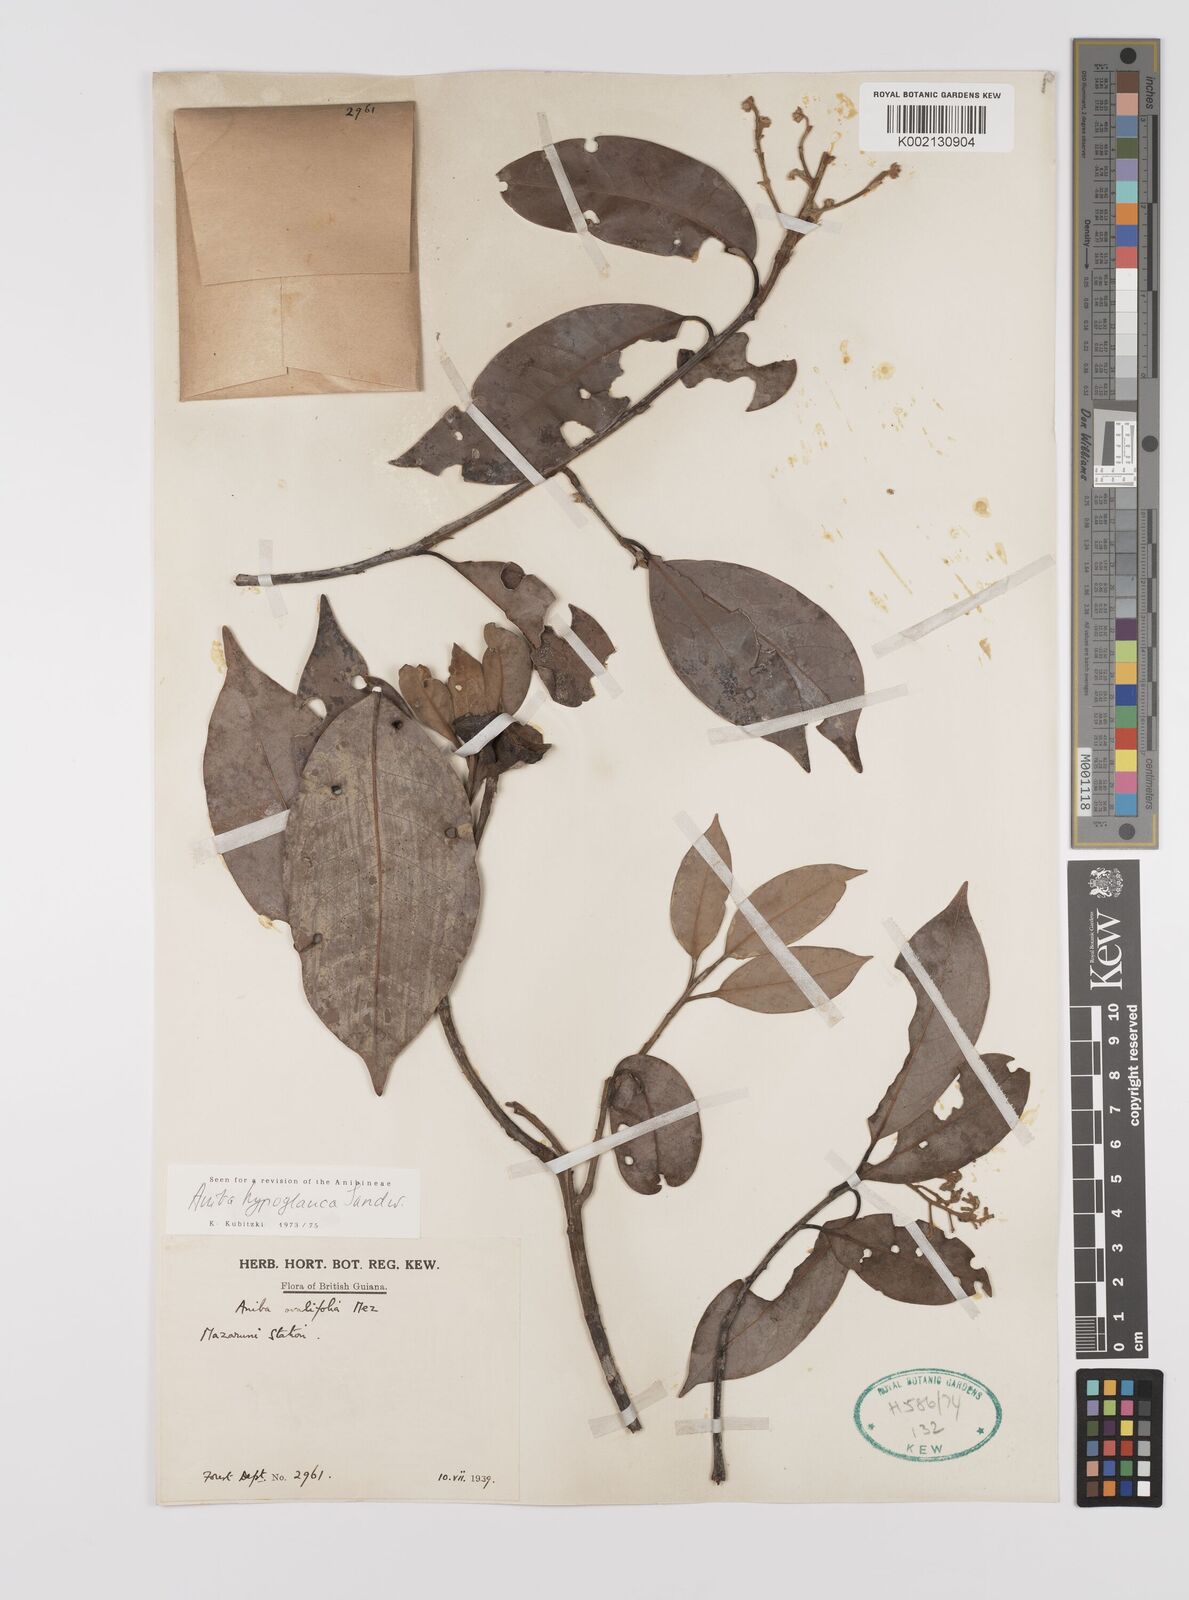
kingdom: Plantae
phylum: Tracheophyta
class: Magnoliopsida
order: Laurales
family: Lauraceae
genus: Aniba
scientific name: Aniba hypoglauca
